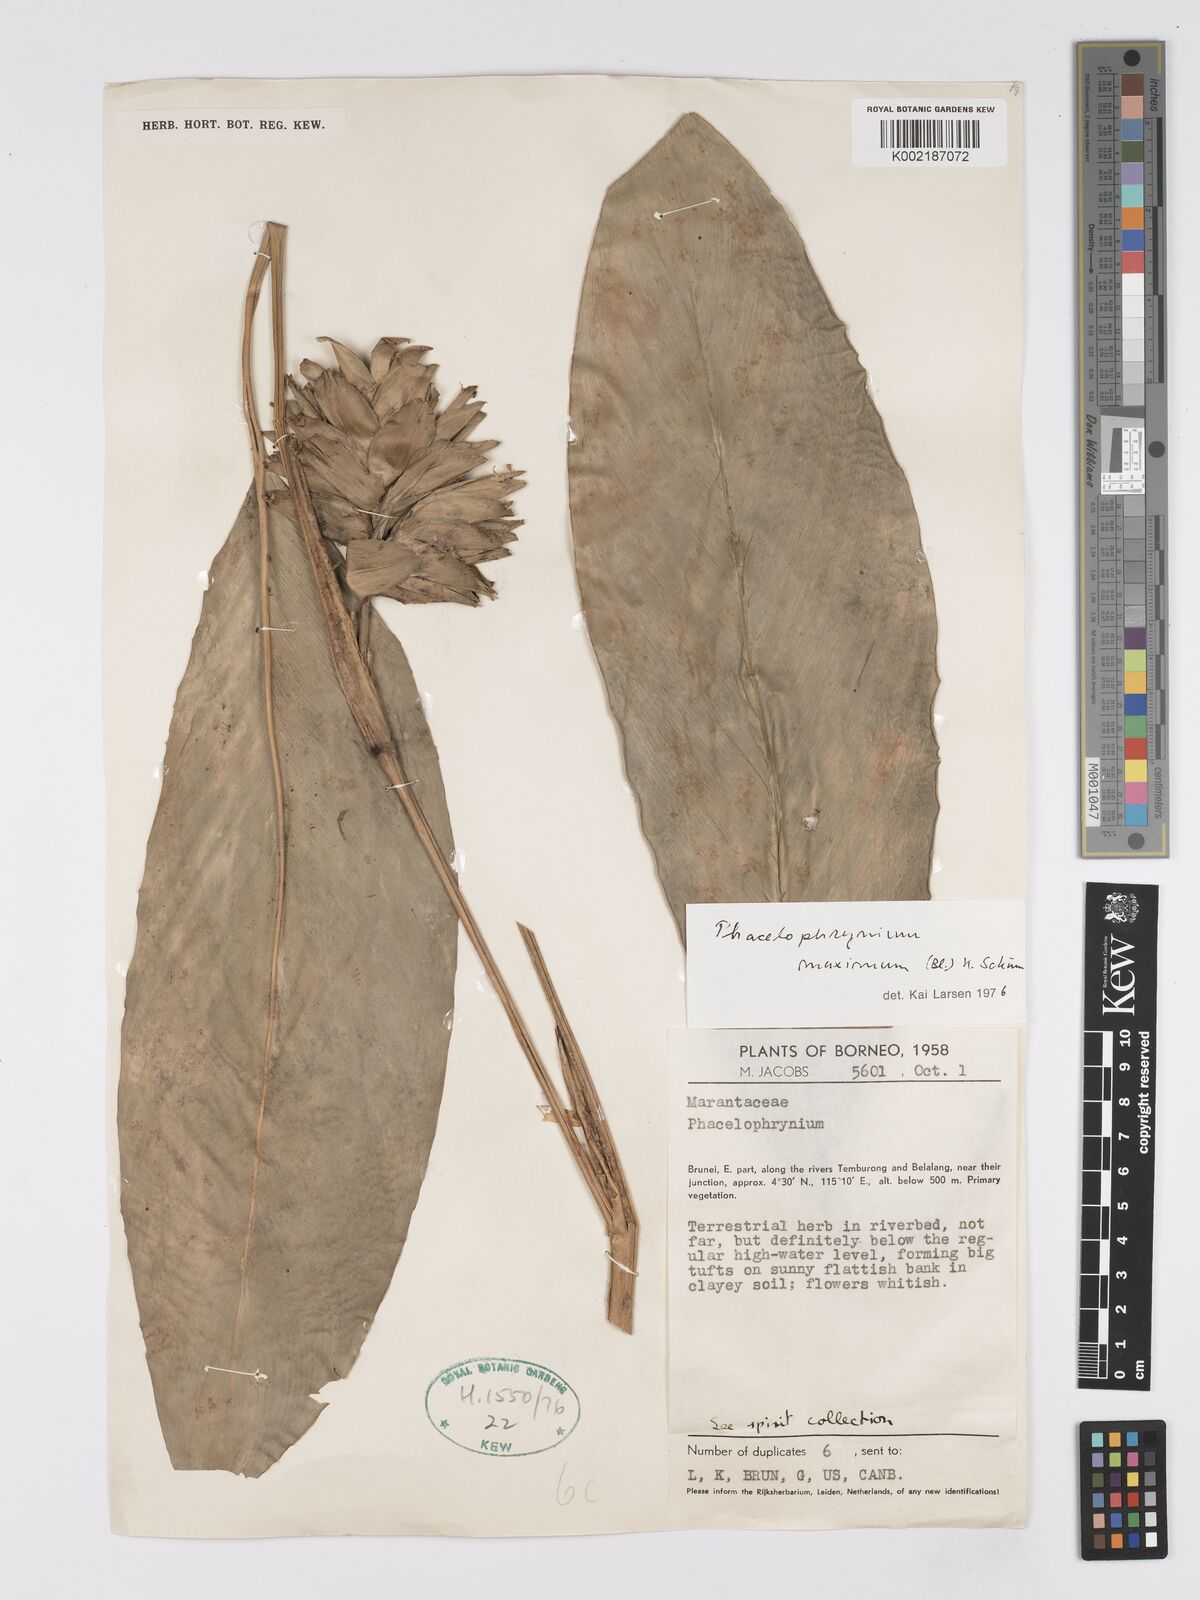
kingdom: Plantae
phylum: Tracheophyta
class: Liliopsida
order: Zingiberales
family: Marantaceae
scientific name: Marantaceae
